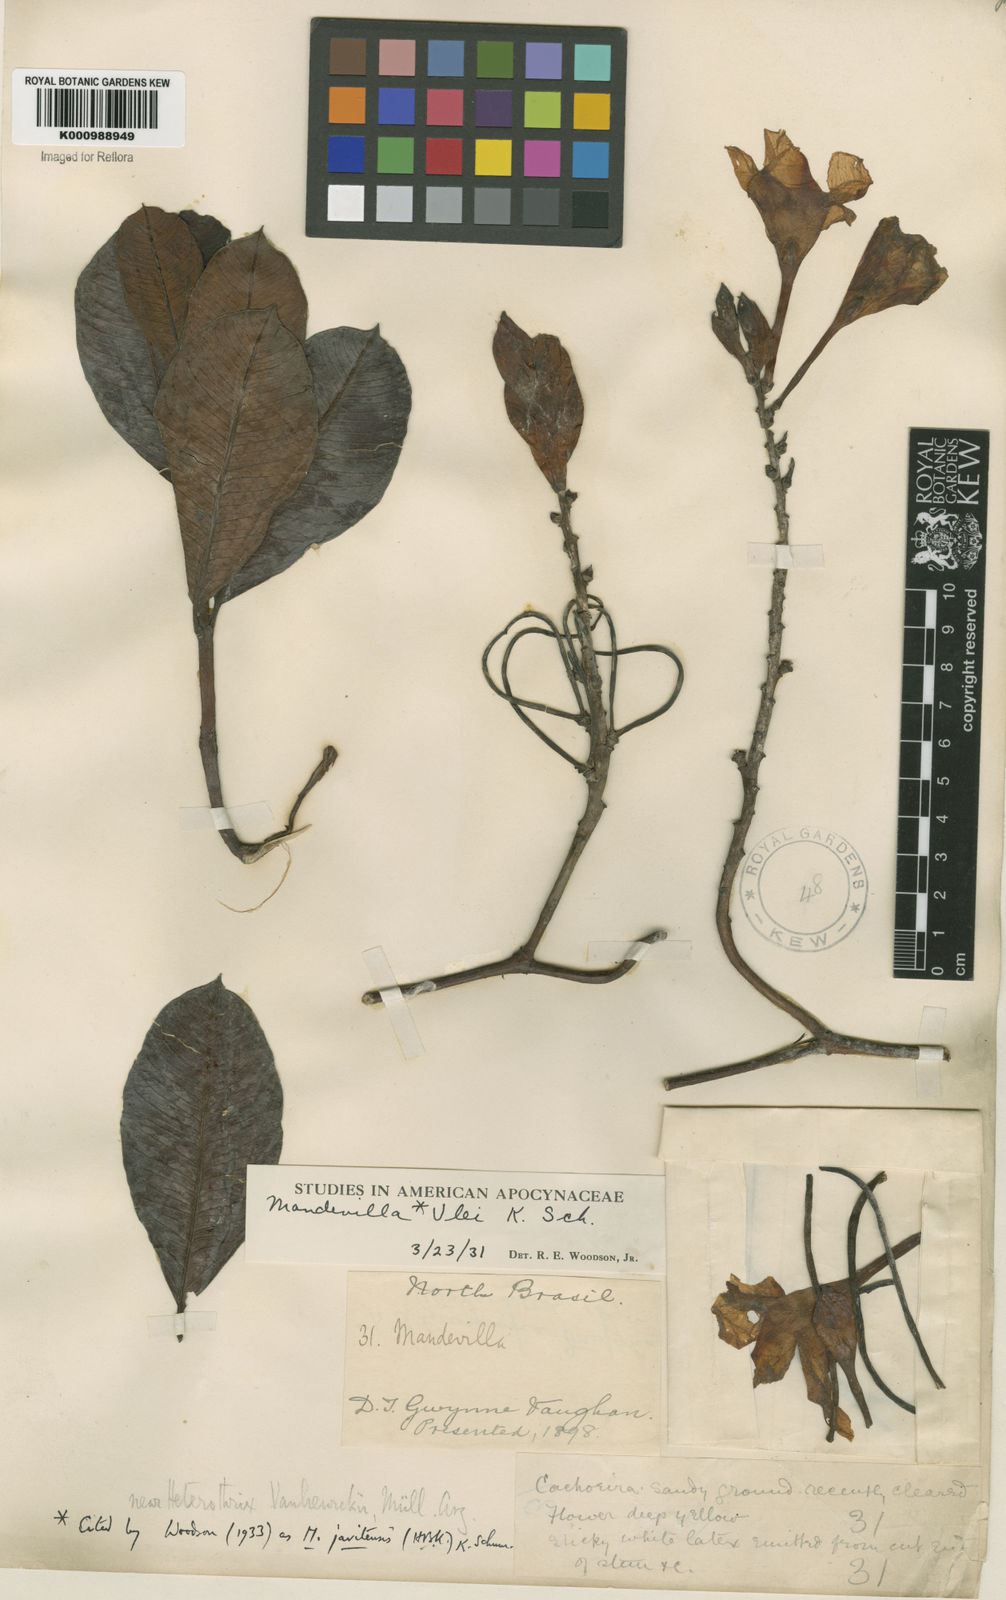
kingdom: Plantae
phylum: Tracheophyta
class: Magnoliopsida
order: Gentianales
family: Apocynaceae
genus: Mandevilla
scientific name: Mandevilla javitensis
